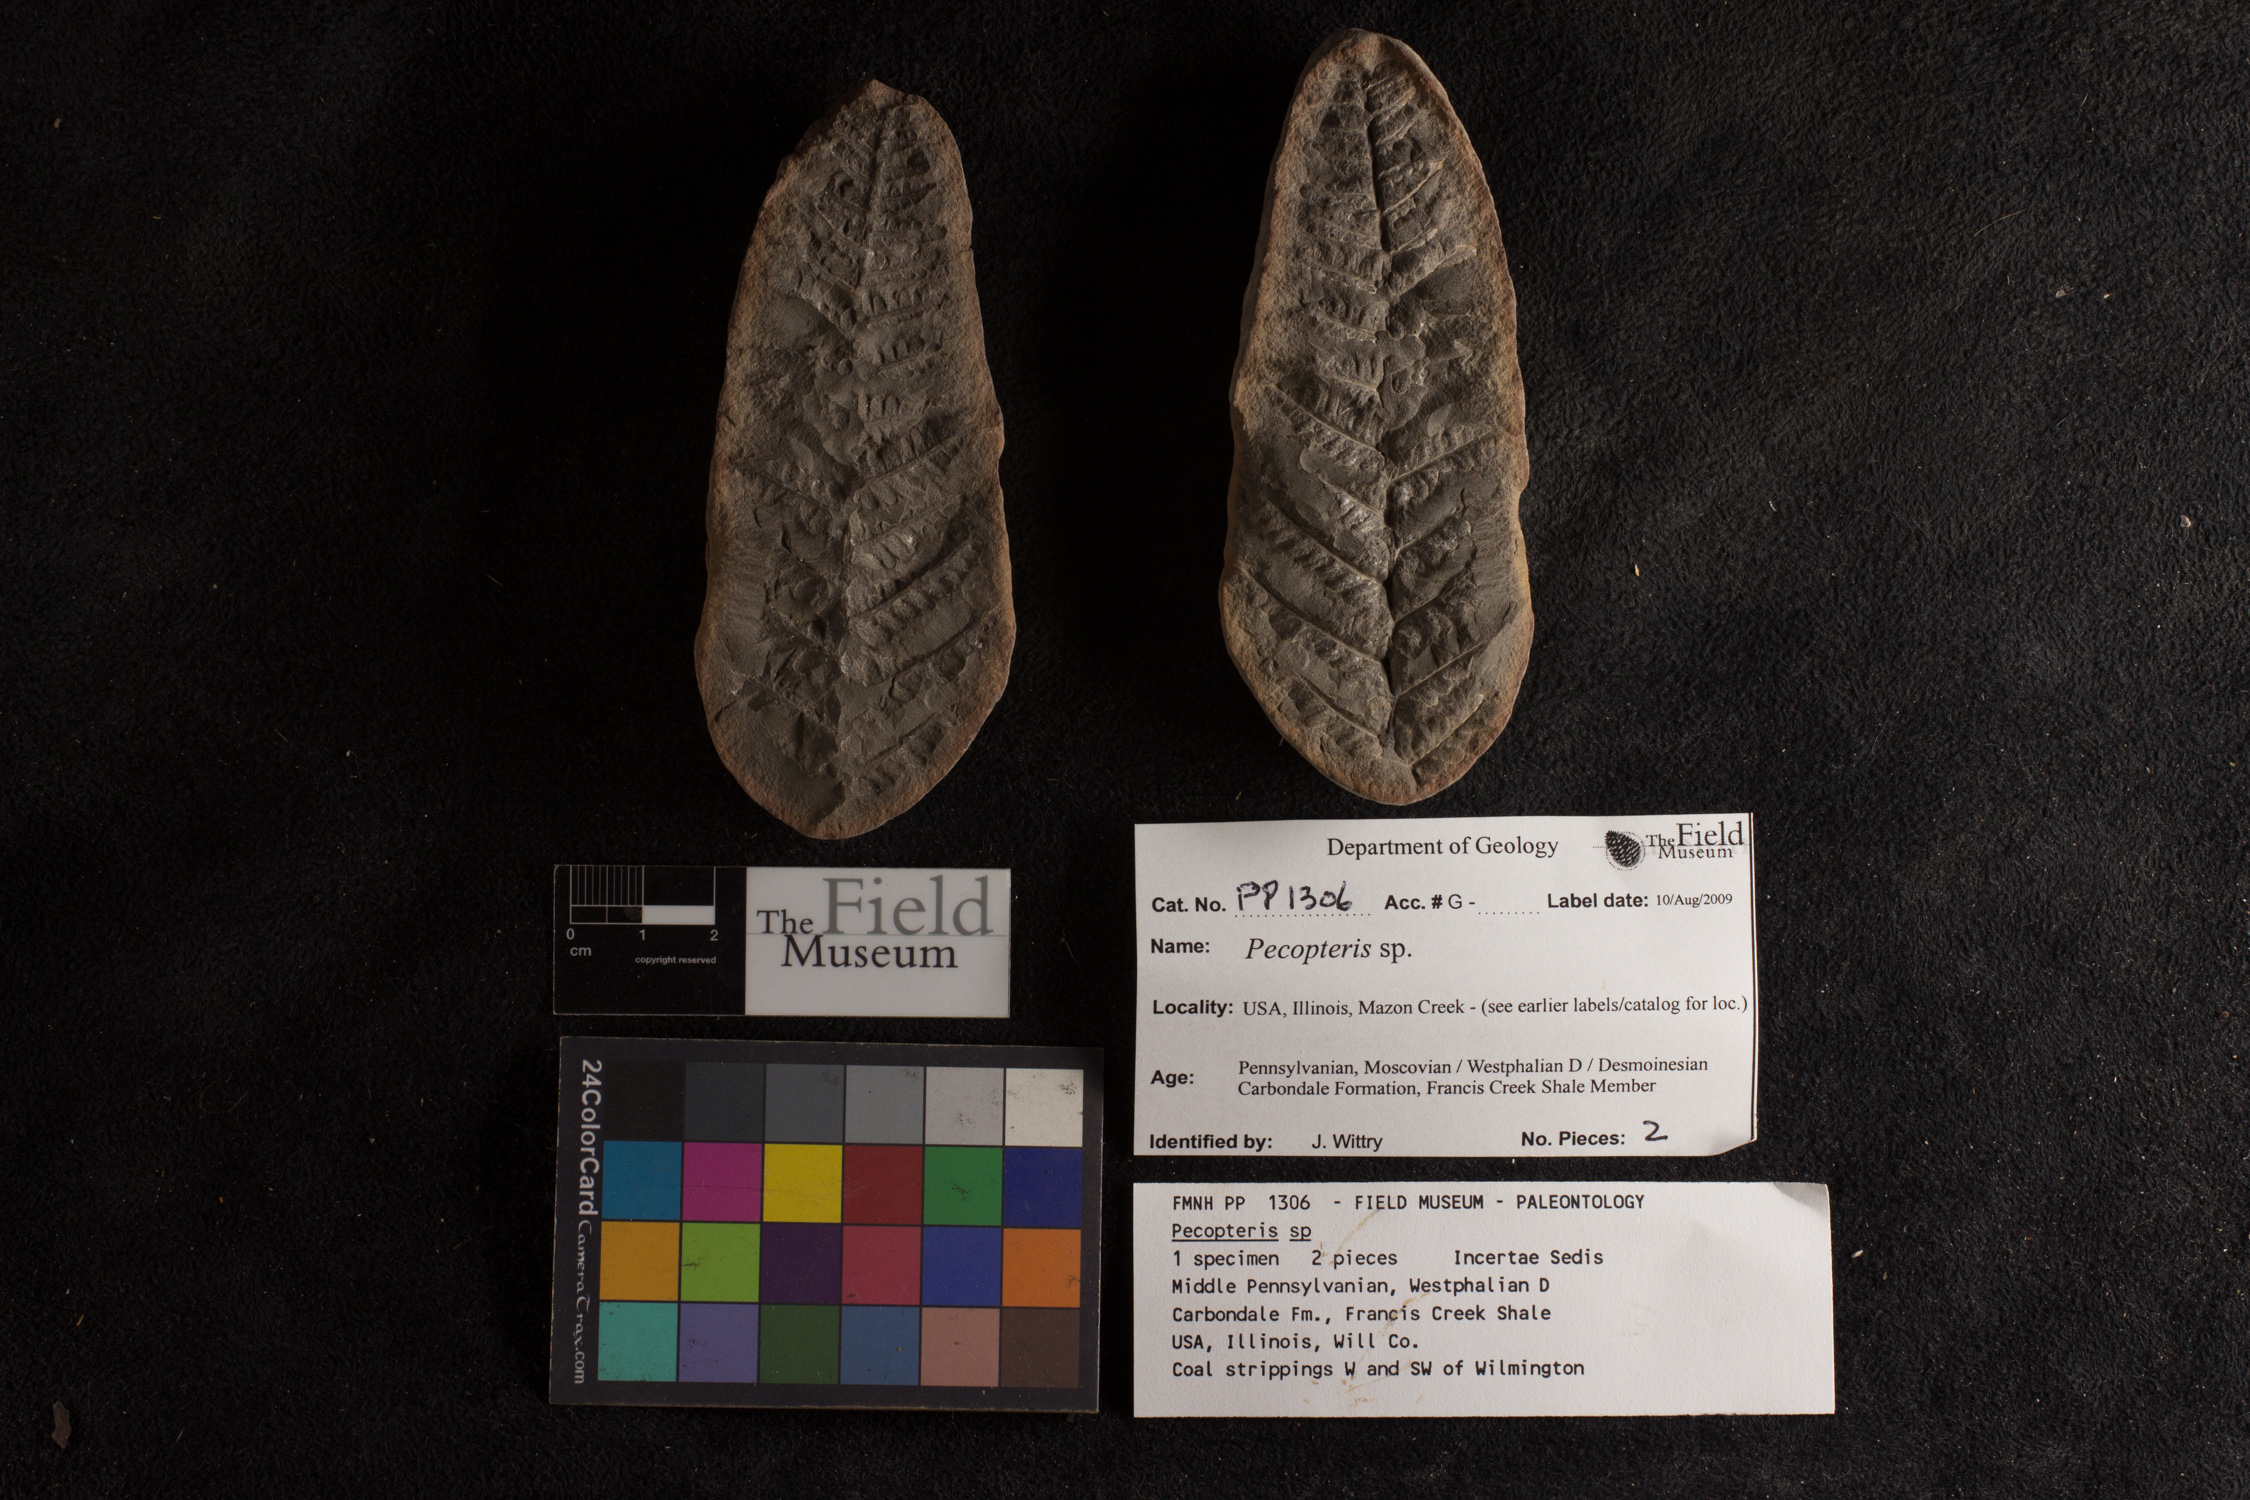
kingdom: Plantae
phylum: Tracheophyta
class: Polypodiopsida
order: Marattiales
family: Asterothecaceae
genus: Pecopteris
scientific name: Pecopteris
